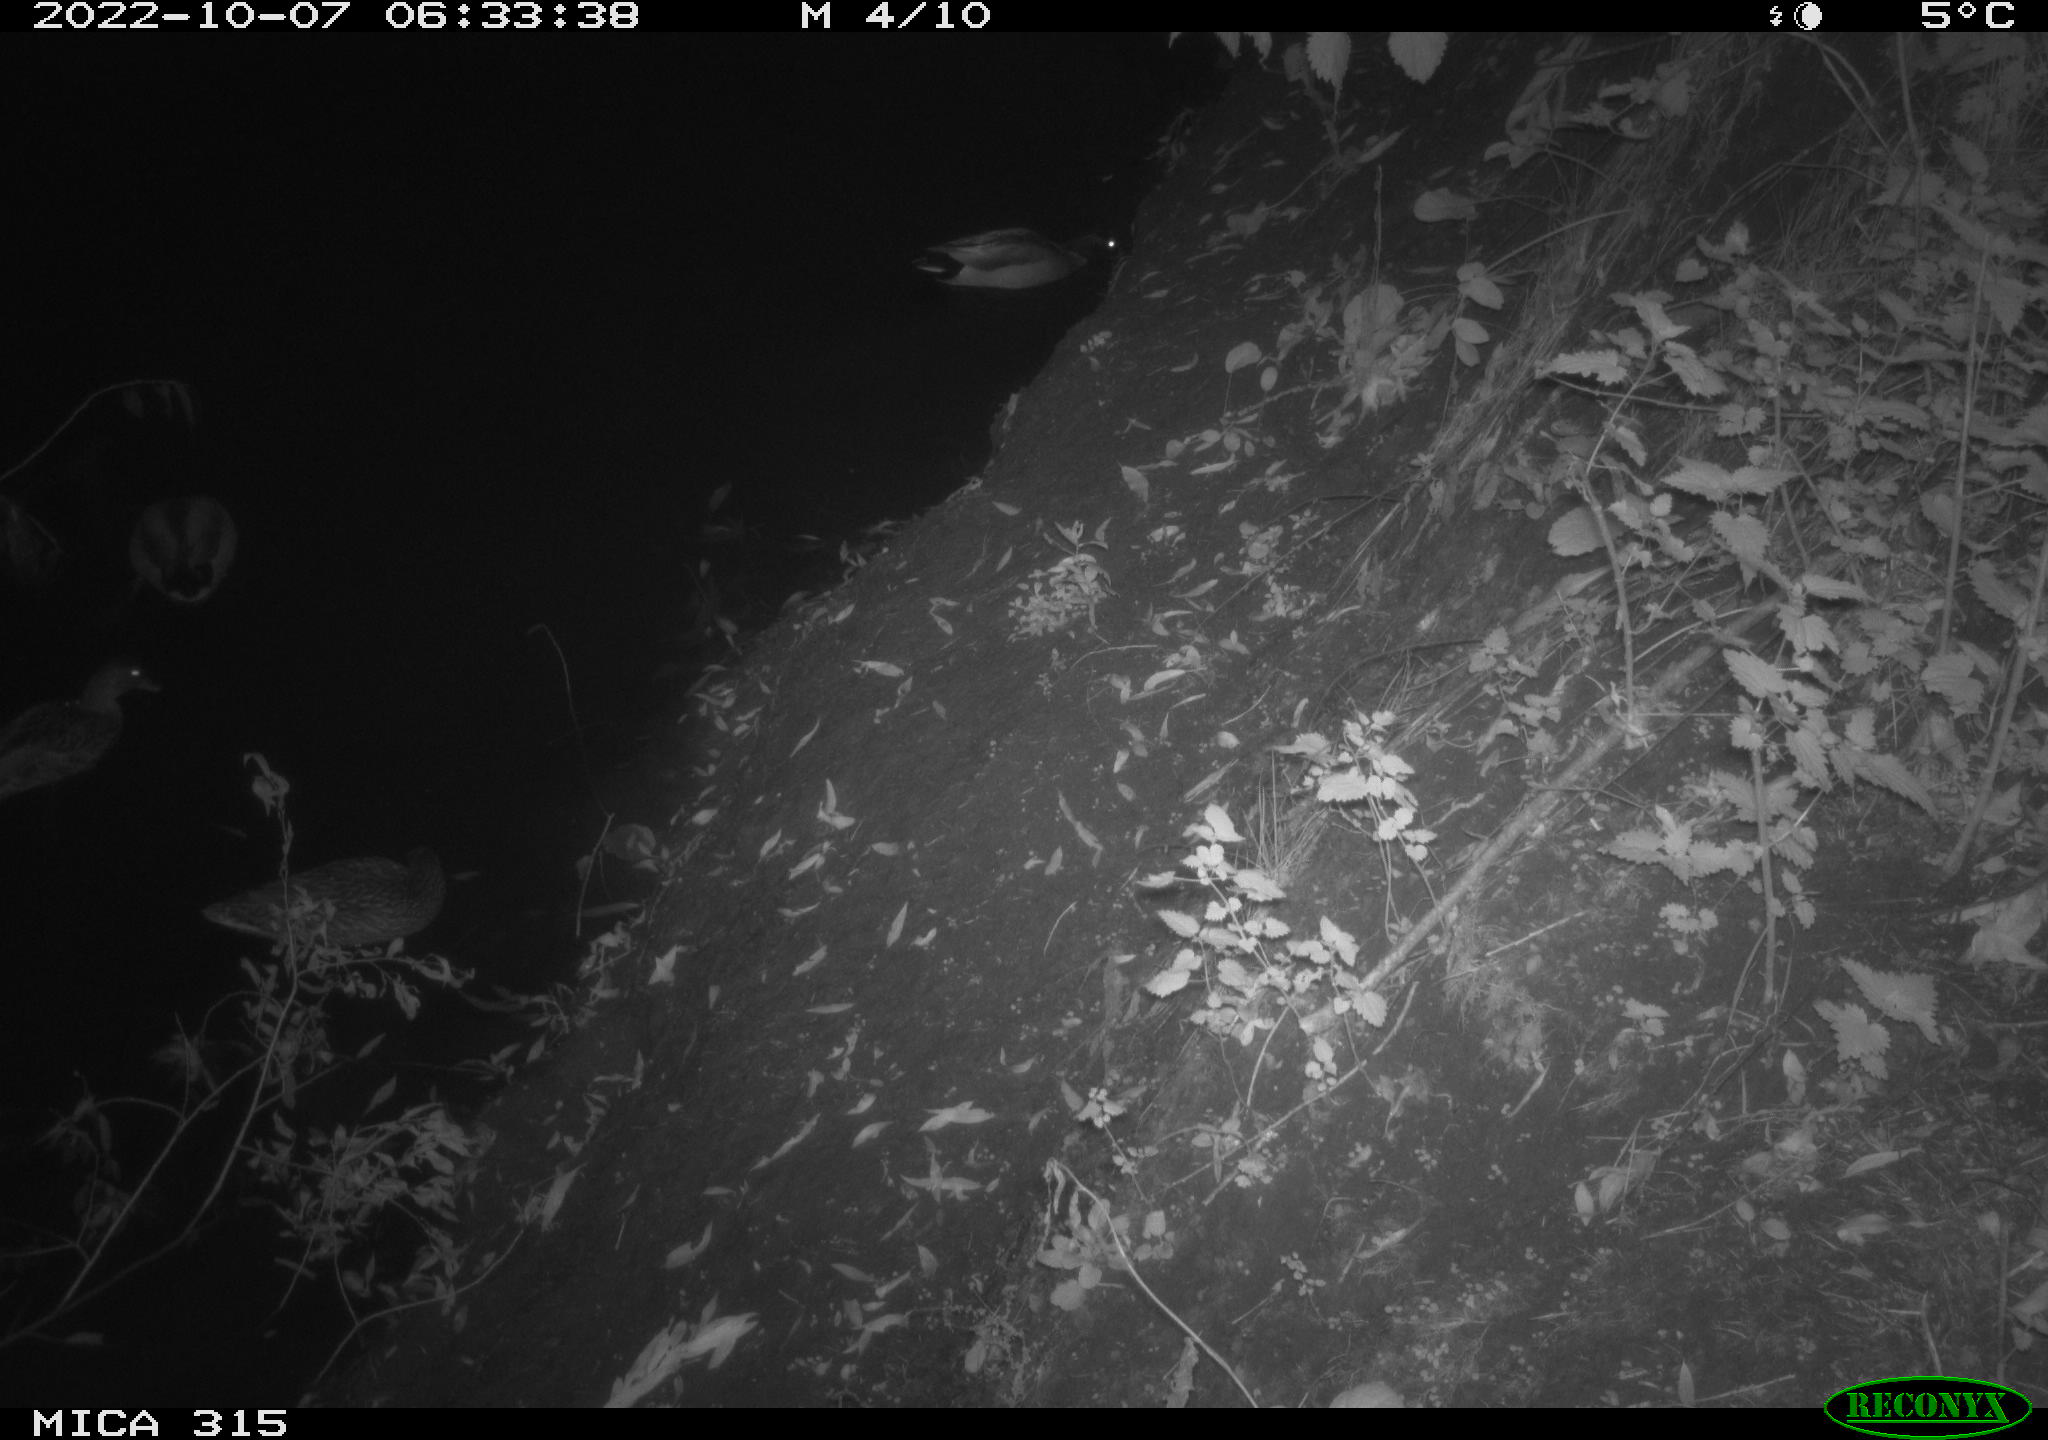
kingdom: Animalia
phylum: Chordata
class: Aves
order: Anseriformes
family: Anatidae
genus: Anas
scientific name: Anas
